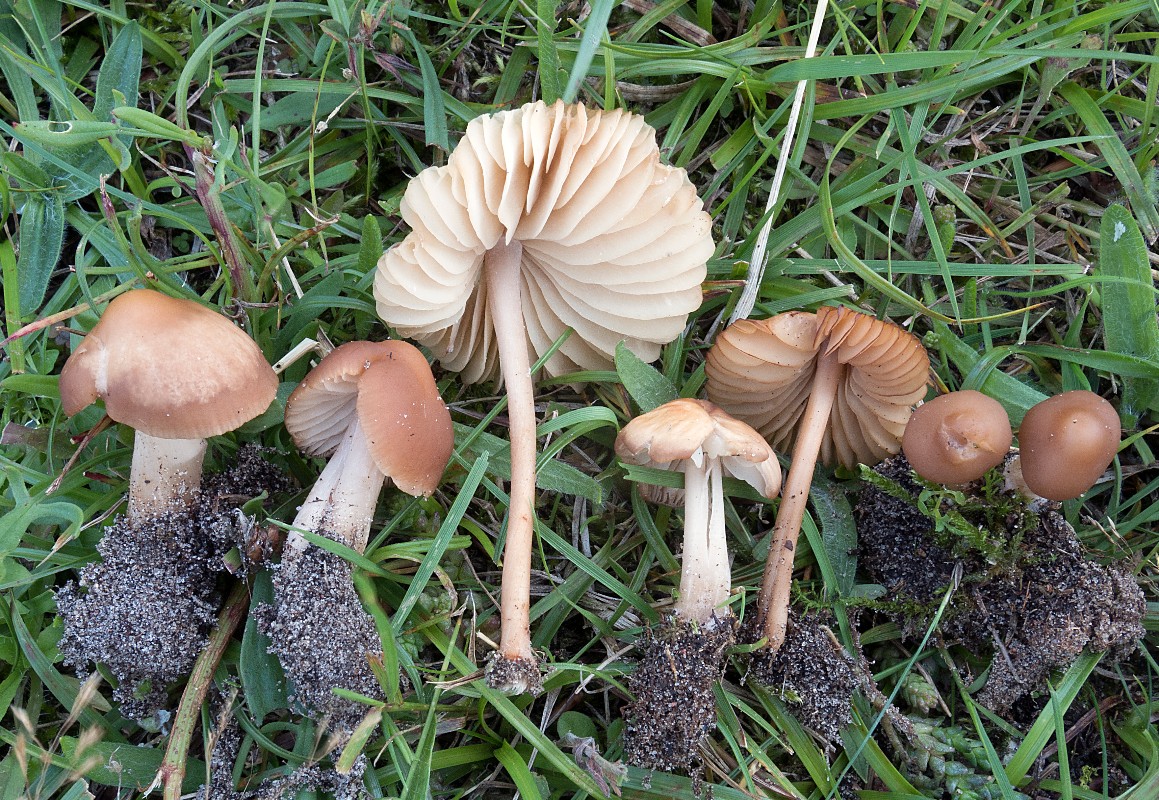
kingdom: Fungi
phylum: Basidiomycota
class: Agaricomycetes
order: Agaricales
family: Marasmiaceae
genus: Marasmius
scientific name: Marasmius collinus
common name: bakke-bruskhat
